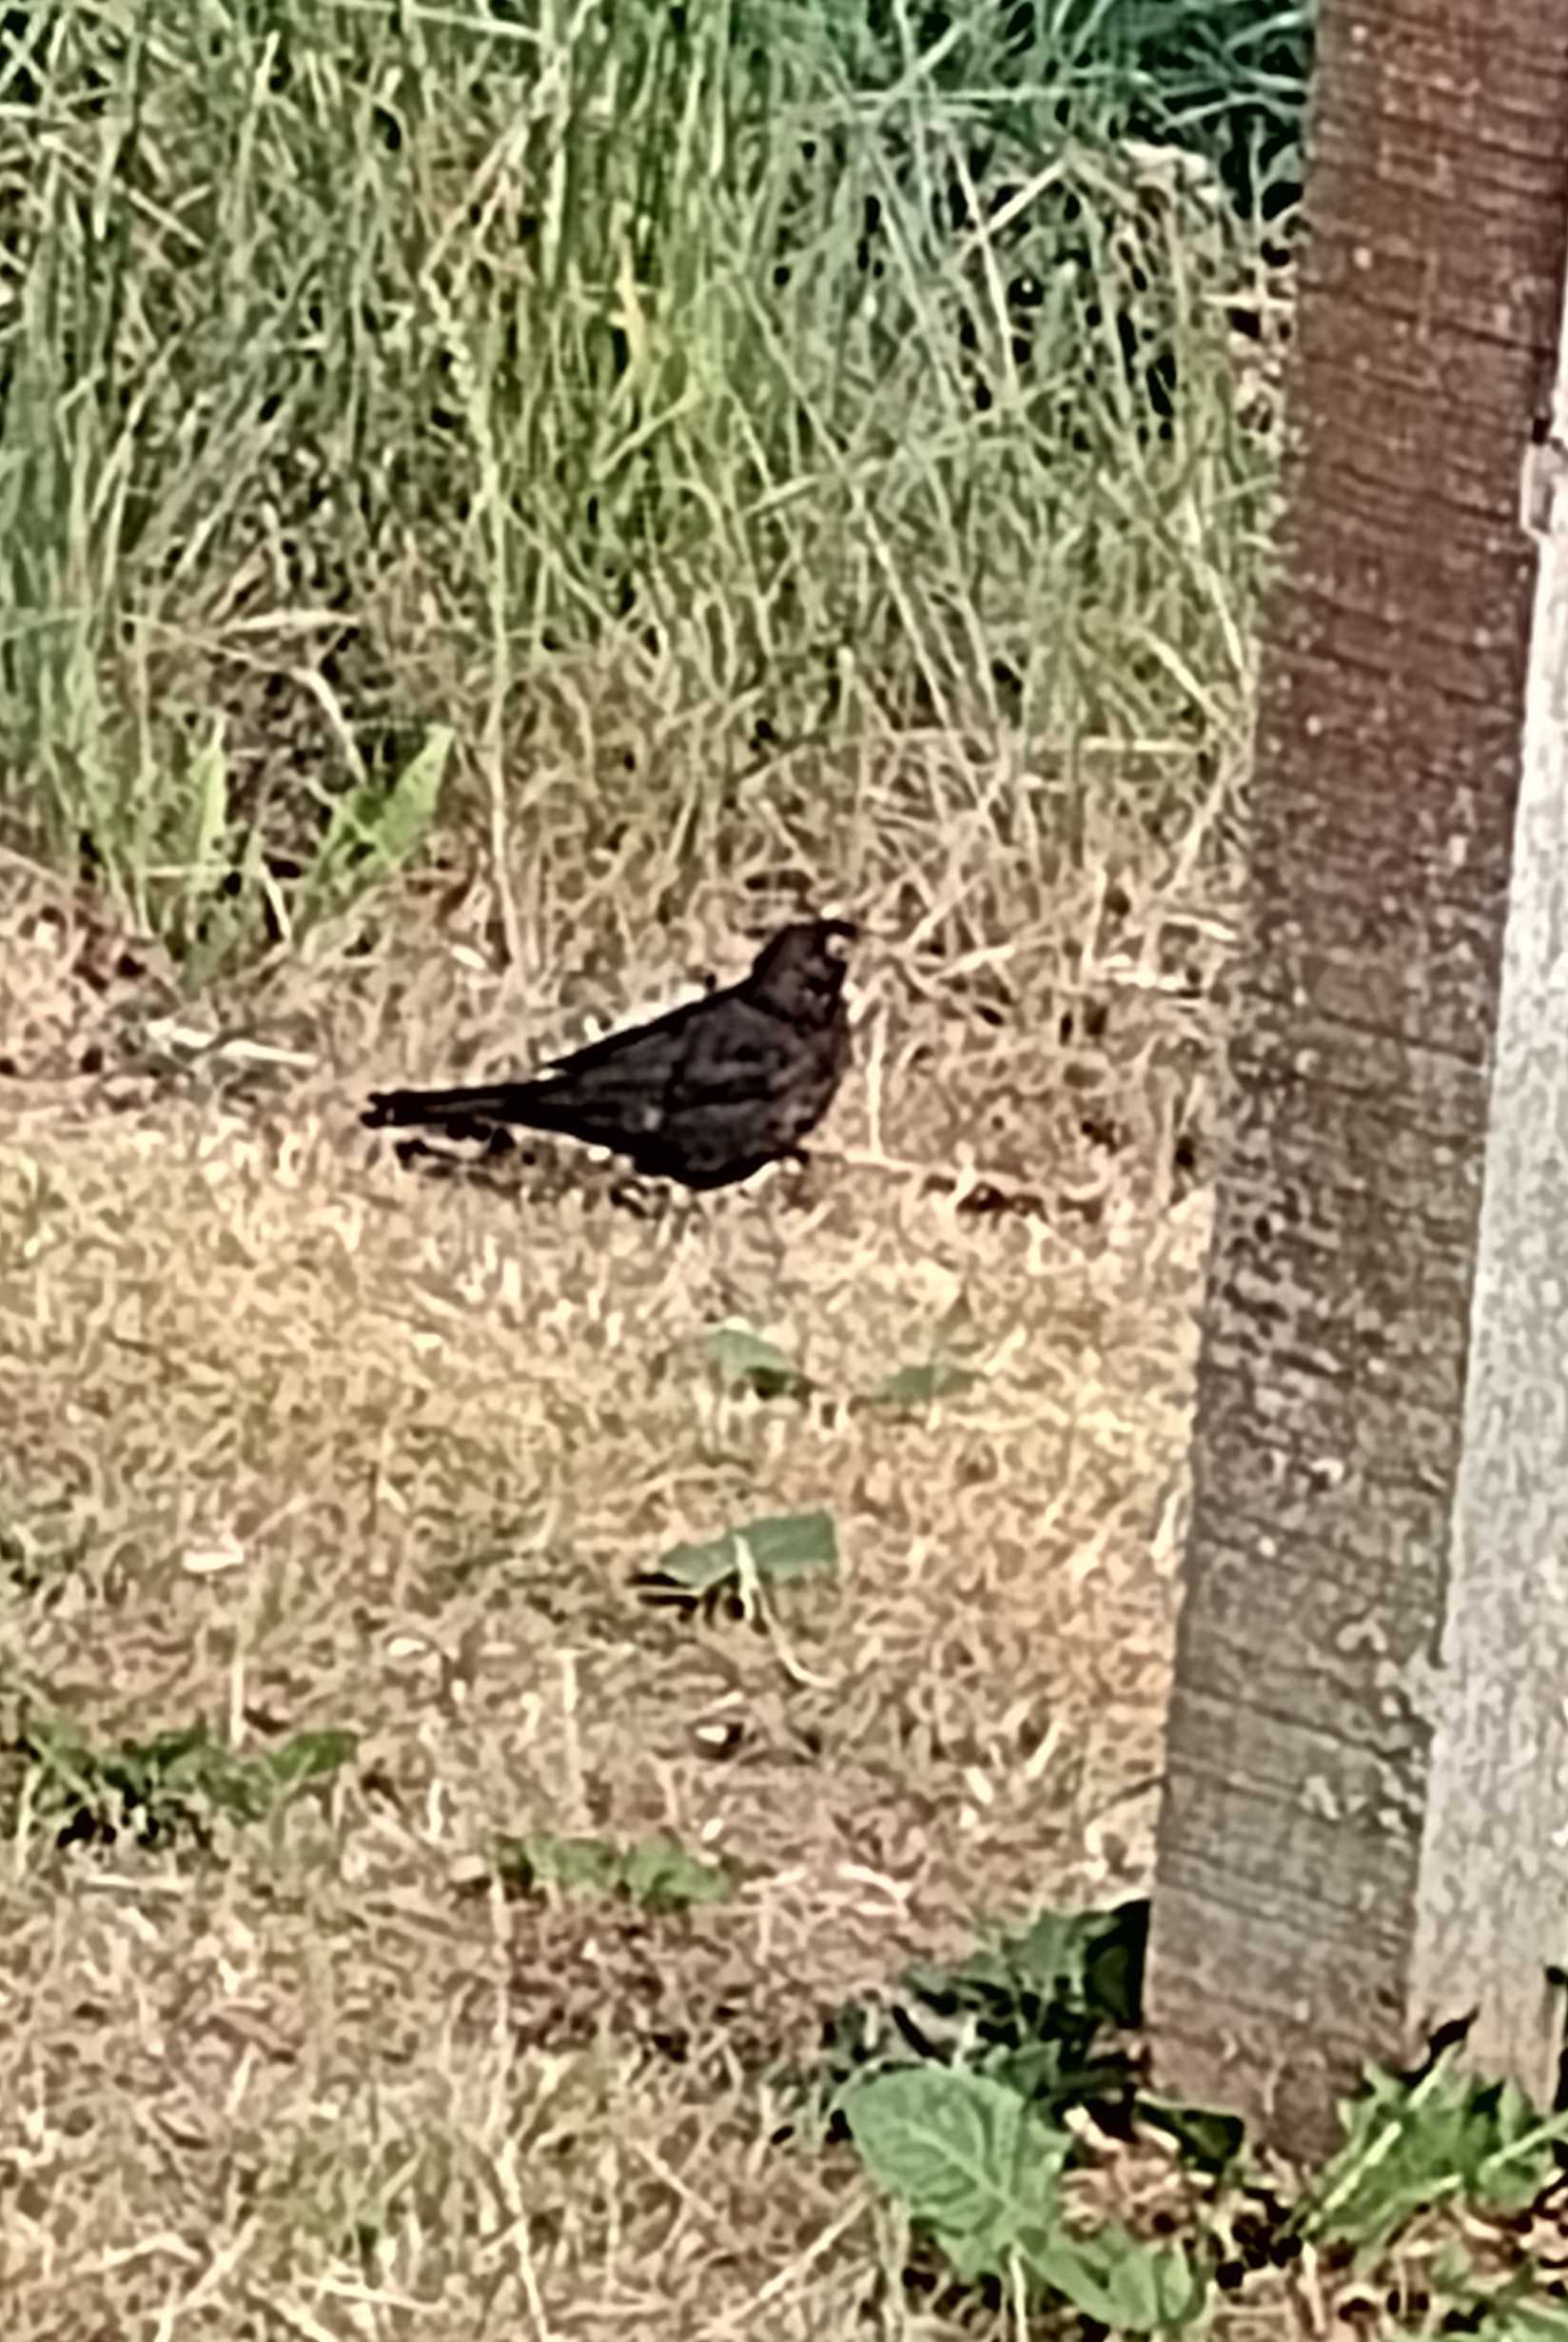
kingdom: Animalia
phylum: Chordata
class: Aves
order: Passeriformes
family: Turdidae
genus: Turdus
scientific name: Turdus merula
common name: Solsort
